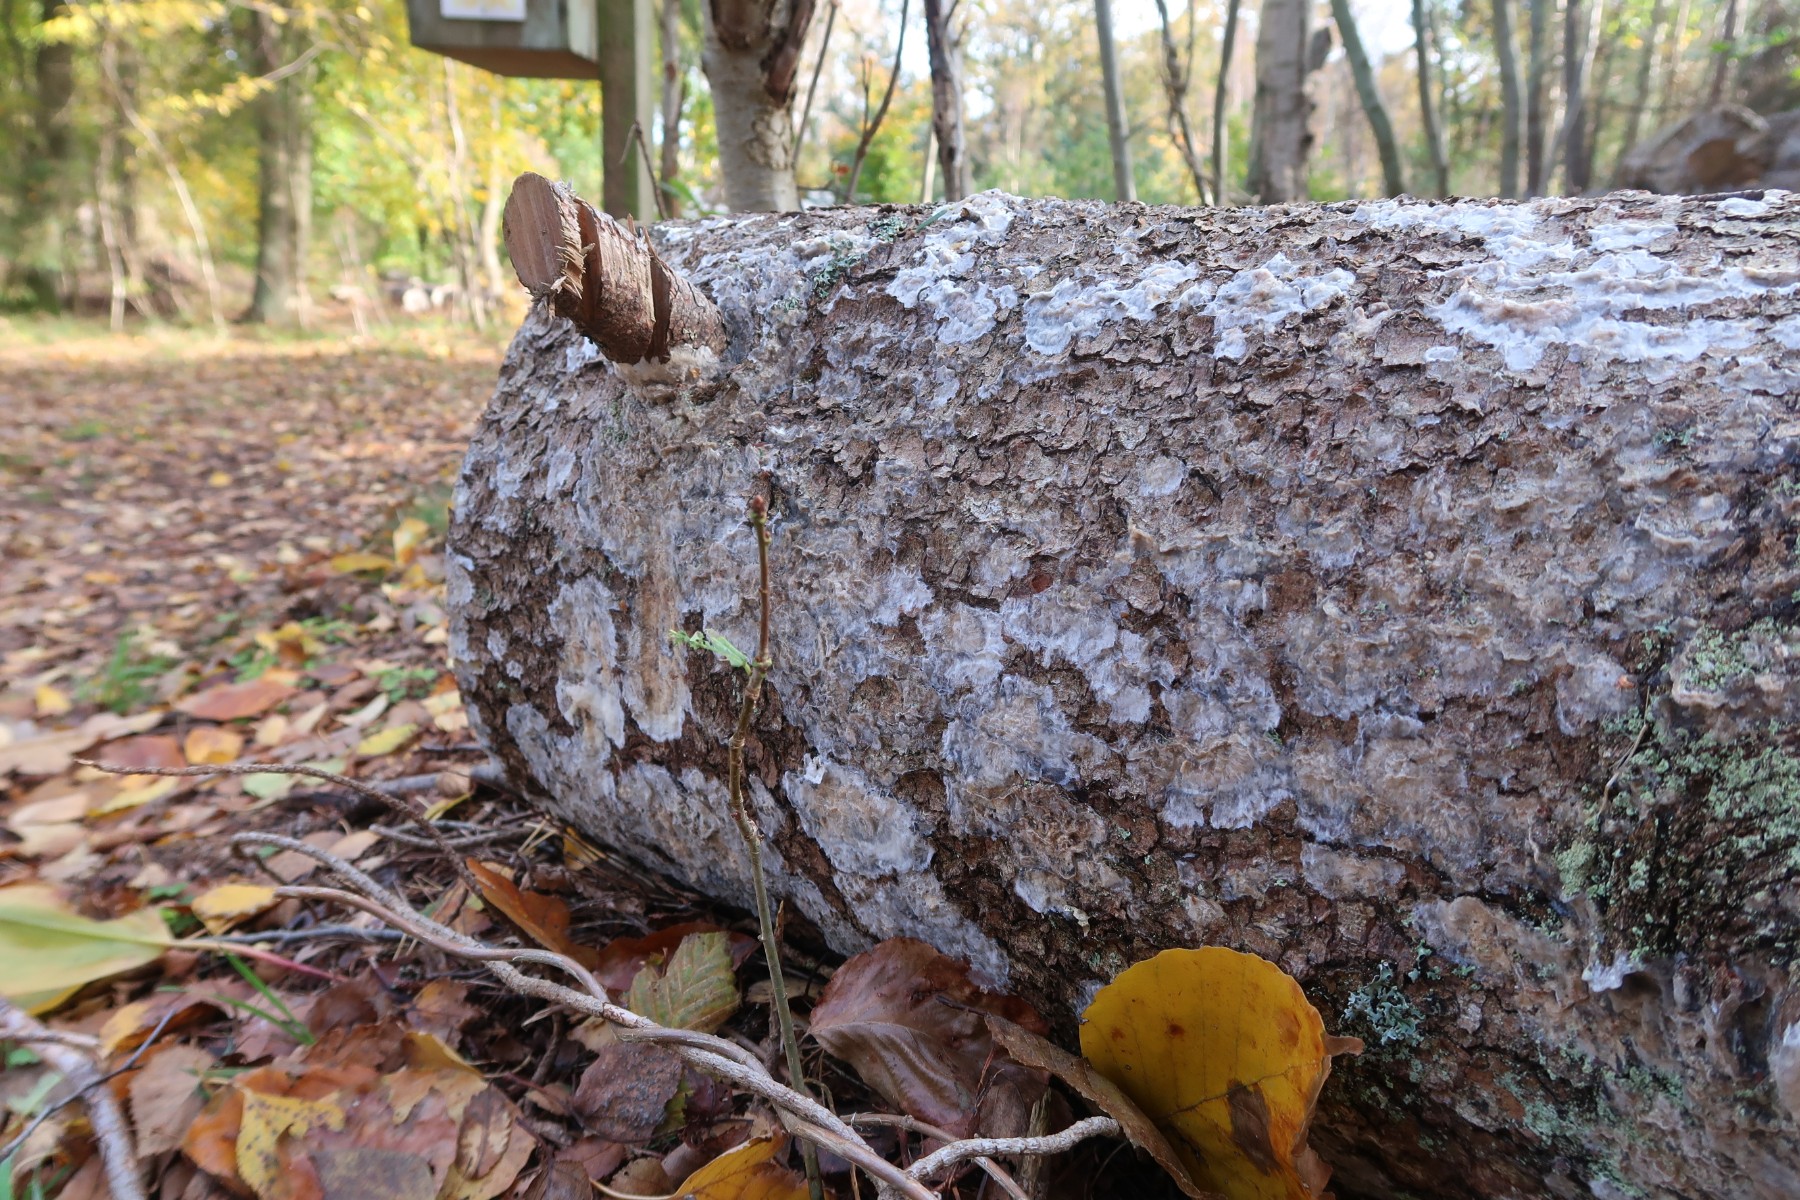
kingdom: Fungi
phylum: Basidiomycota
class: Agaricomycetes
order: Polyporales
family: Phanerochaetaceae
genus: Phlebiopsis
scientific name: Phlebiopsis gigantea
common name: kæmpebarksvamp
